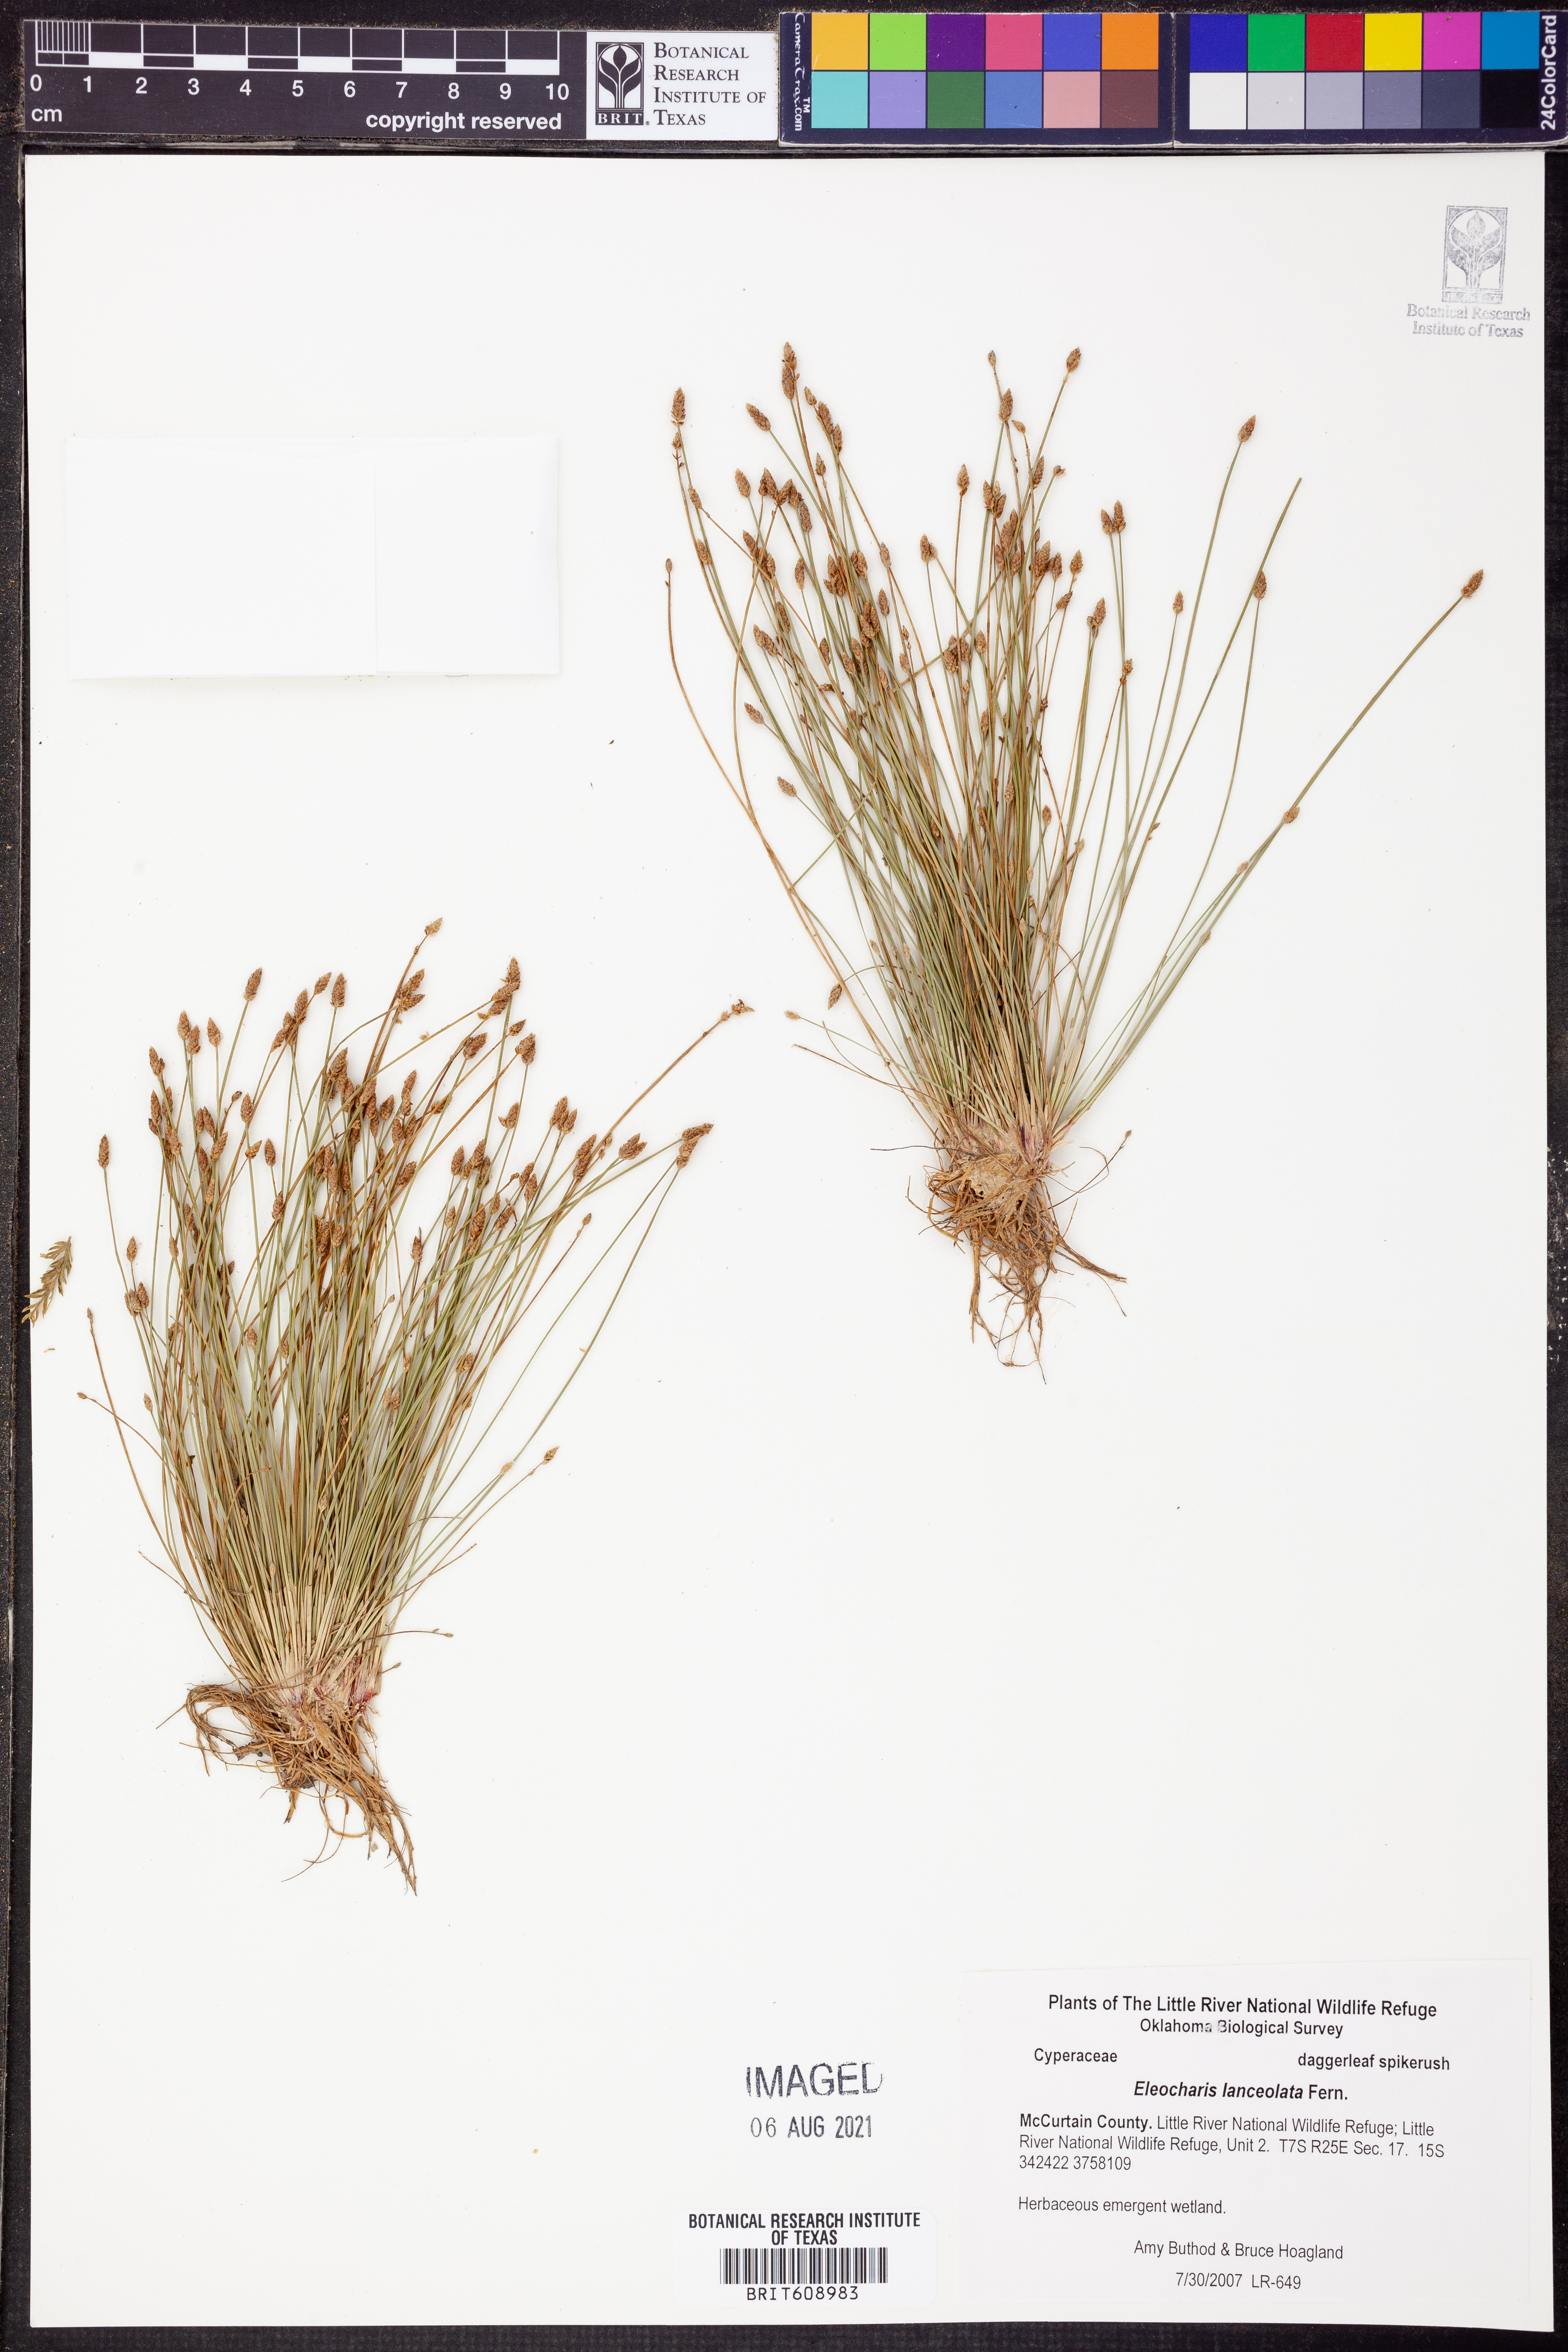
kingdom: Plantae
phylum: Tracheophyta
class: Liliopsida
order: Poales
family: Cyperaceae
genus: Eleocharis
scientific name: Eleocharis lanceolata
